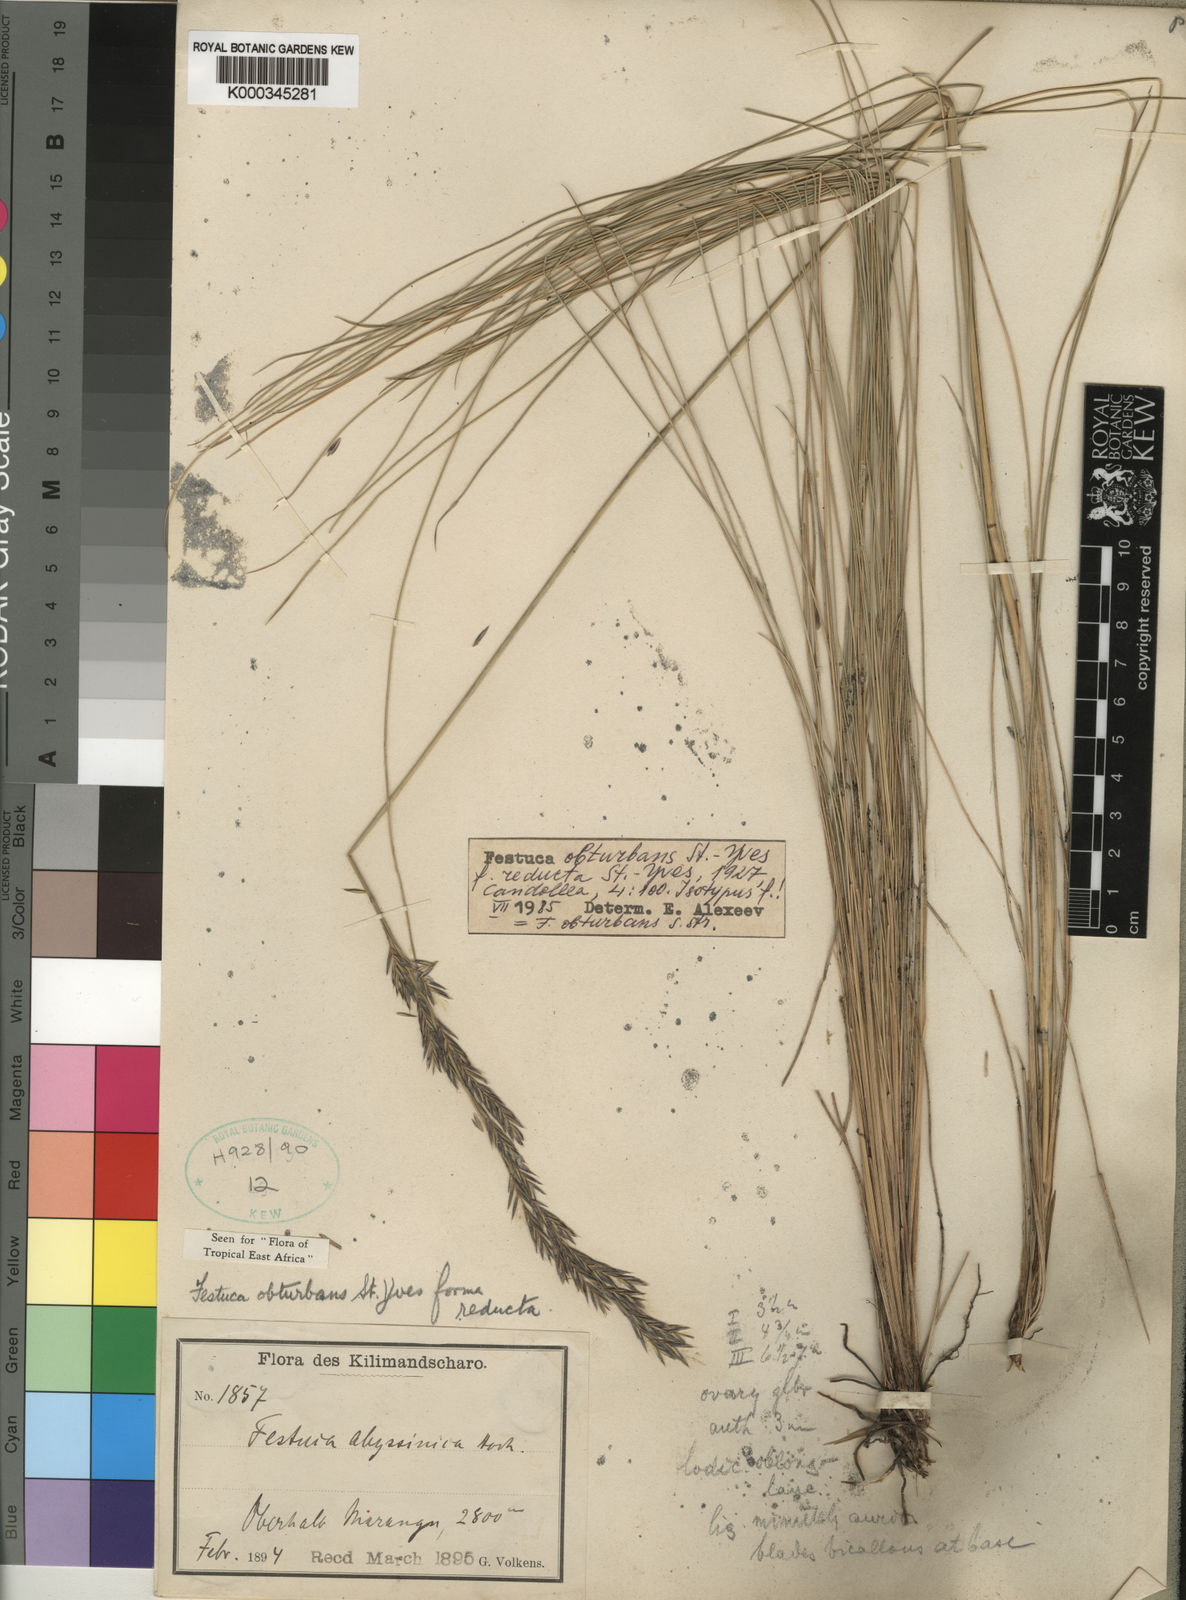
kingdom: Plantae
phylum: Tracheophyta
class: Liliopsida
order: Poales
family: Poaceae
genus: Festuca
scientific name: Festuca obturbans
